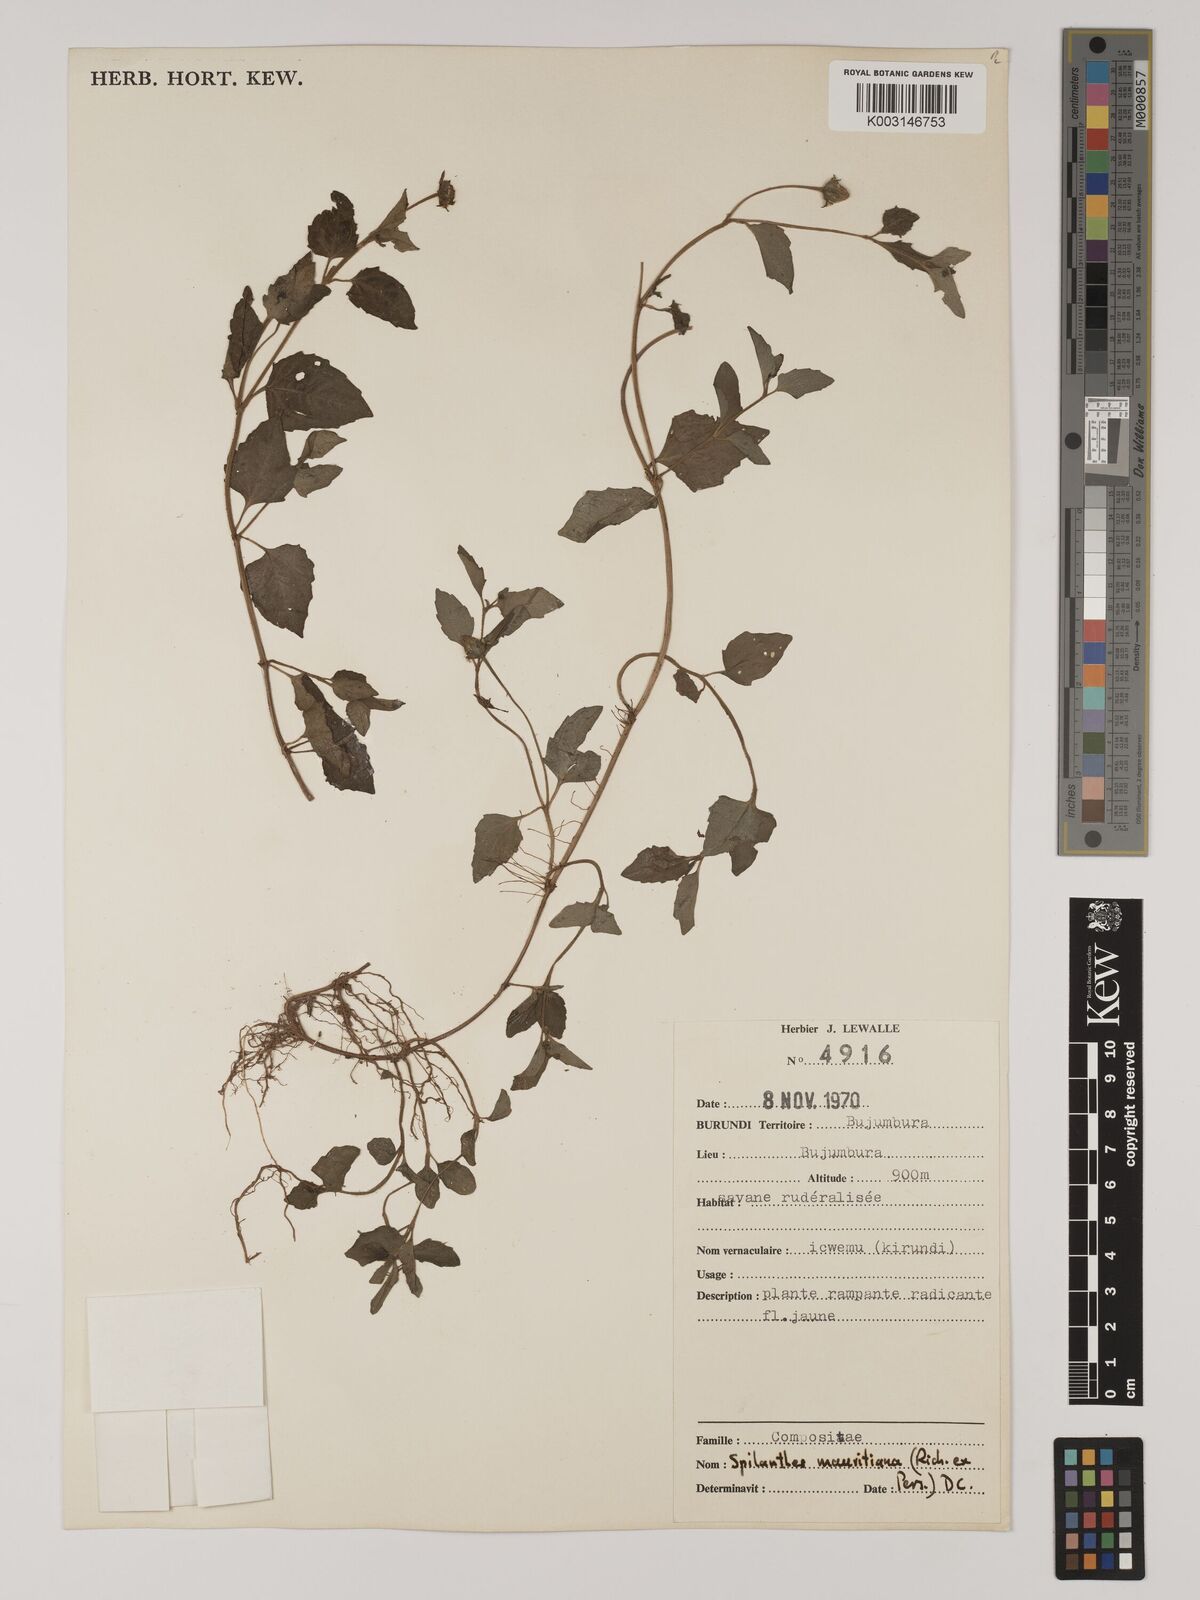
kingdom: Plantae
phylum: Tracheophyta
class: Magnoliopsida
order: Asterales
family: Asteraceae
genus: Acmella
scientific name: Acmella caulirhiza
